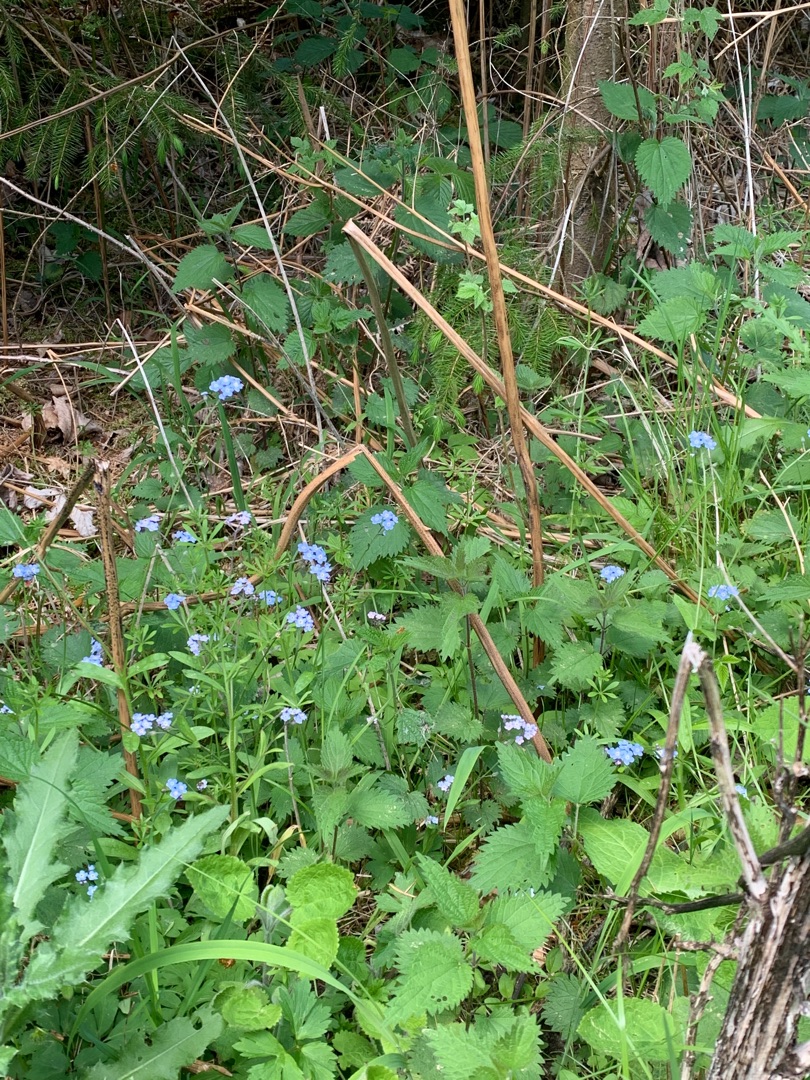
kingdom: Plantae
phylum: Tracheophyta
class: Magnoliopsida
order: Boraginales
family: Boraginaceae
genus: Myosotis
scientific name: Myosotis sylvatica
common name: Skov-forglemmigej
